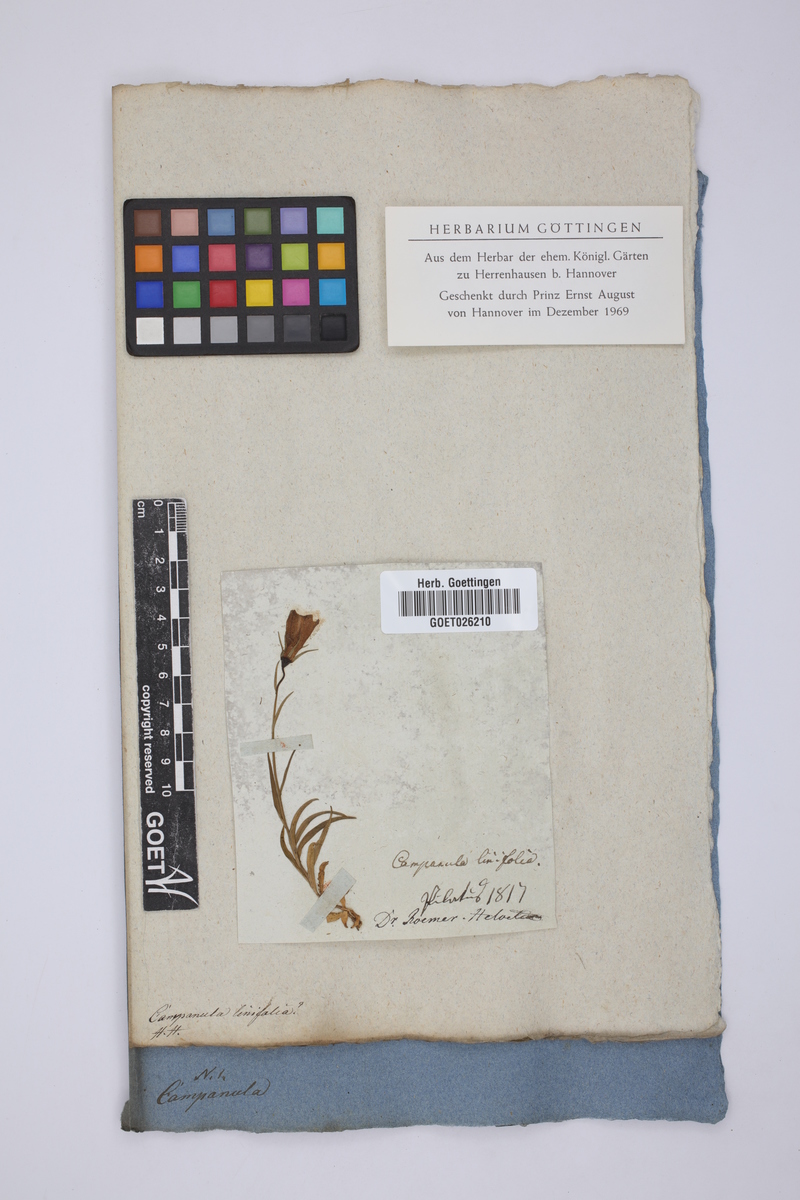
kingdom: Plantae
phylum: Tracheophyta
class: Magnoliopsida
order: Asterales
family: Campanulaceae
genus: Campanula
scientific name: Campanula
